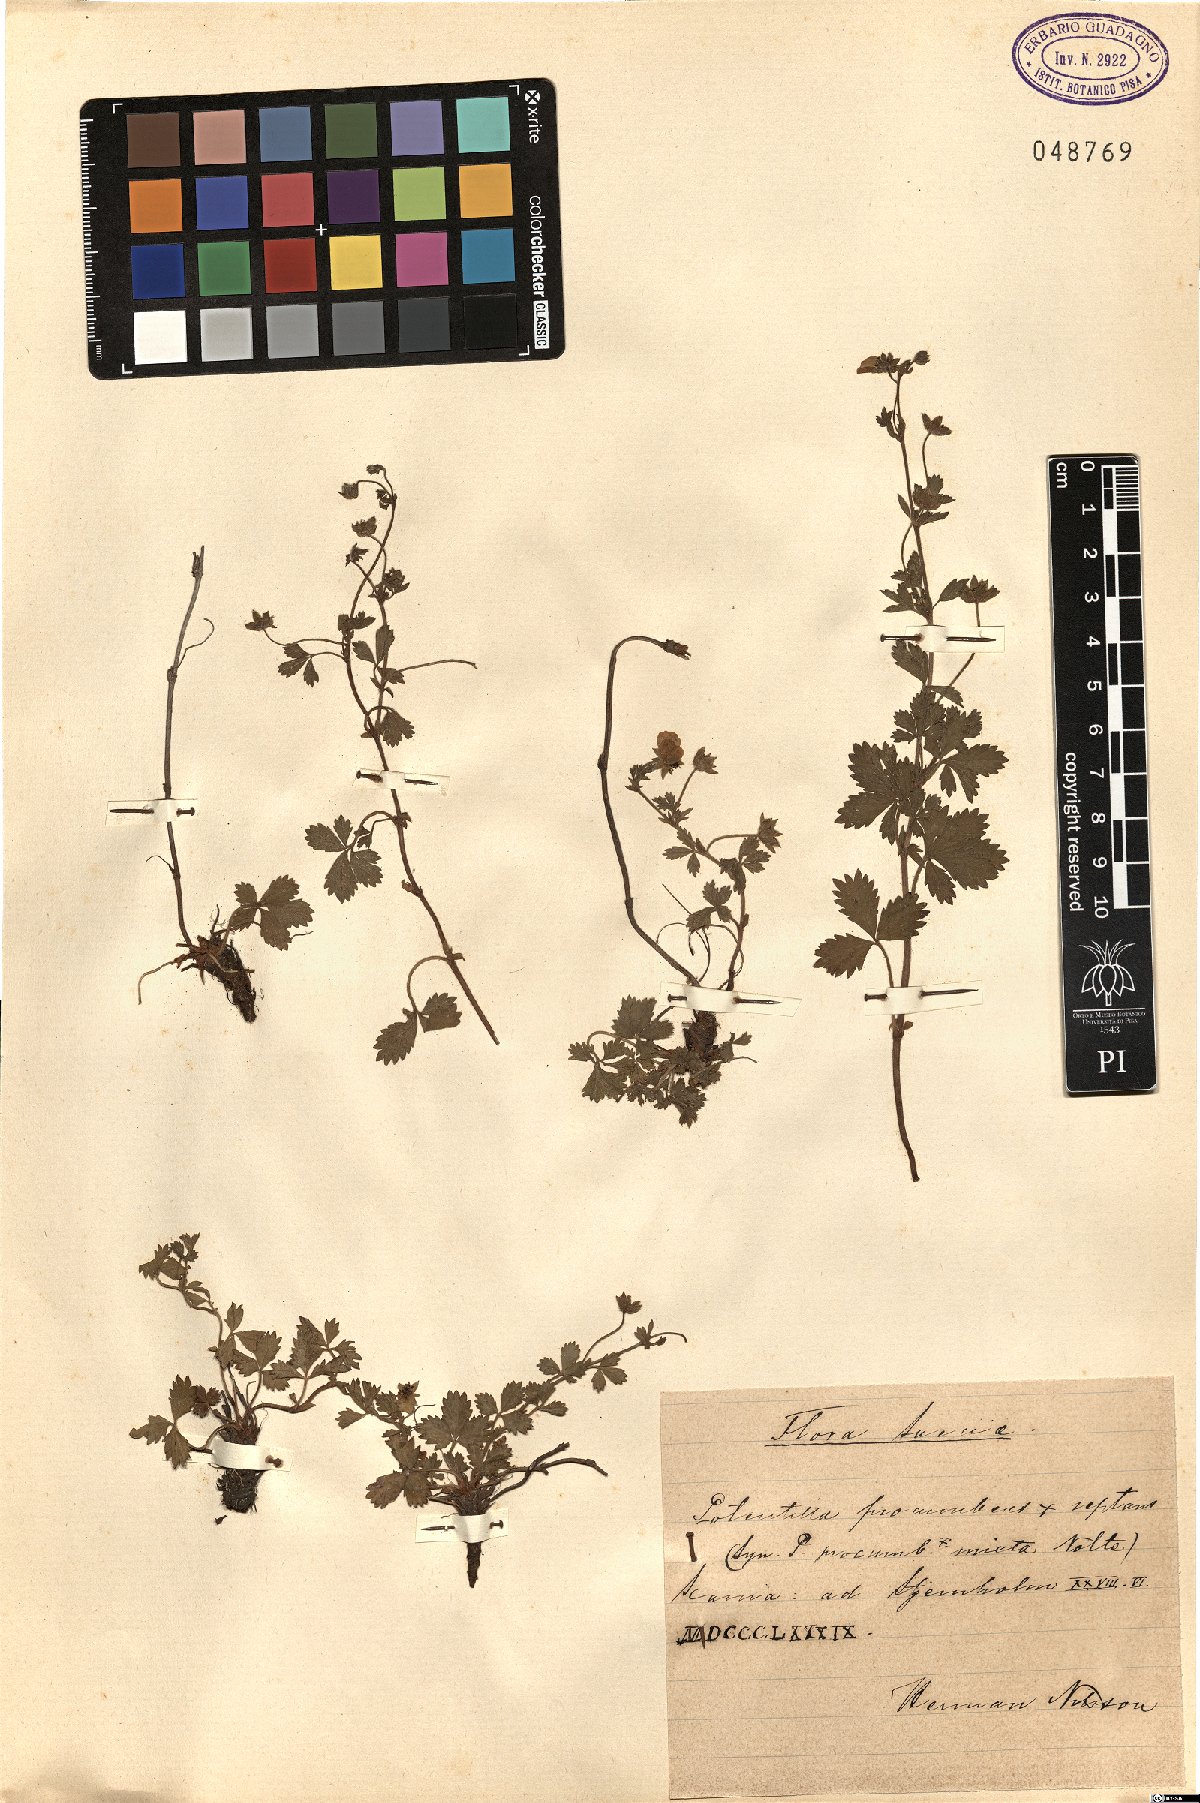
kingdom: Plantae
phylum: Tracheophyta
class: Magnoliopsida
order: Rosales
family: Rosaceae
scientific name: Rosaceae
